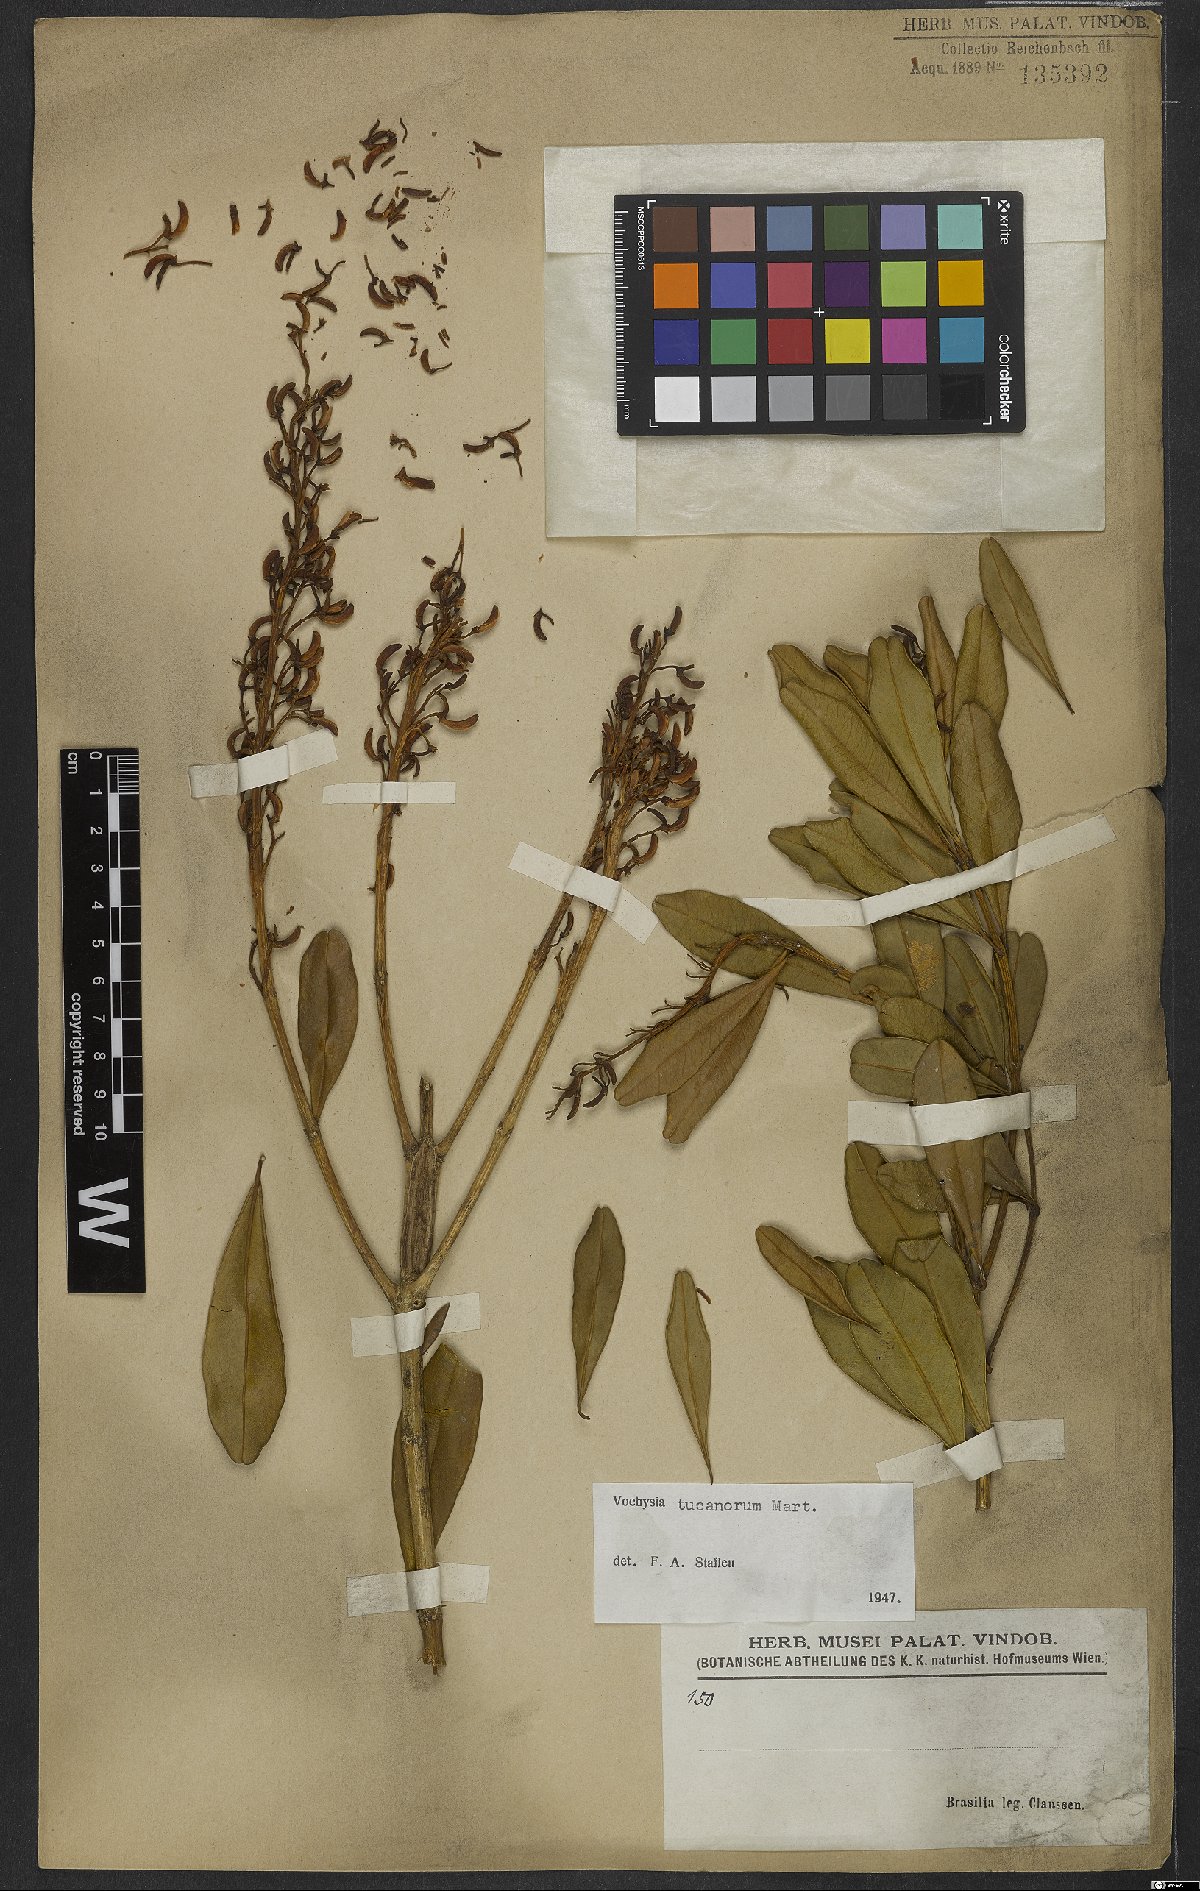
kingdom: Plantae
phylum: Tracheophyta
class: Magnoliopsida
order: Myrtales
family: Vochysiaceae
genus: Vochysia
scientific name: Vochysia tucanorum
